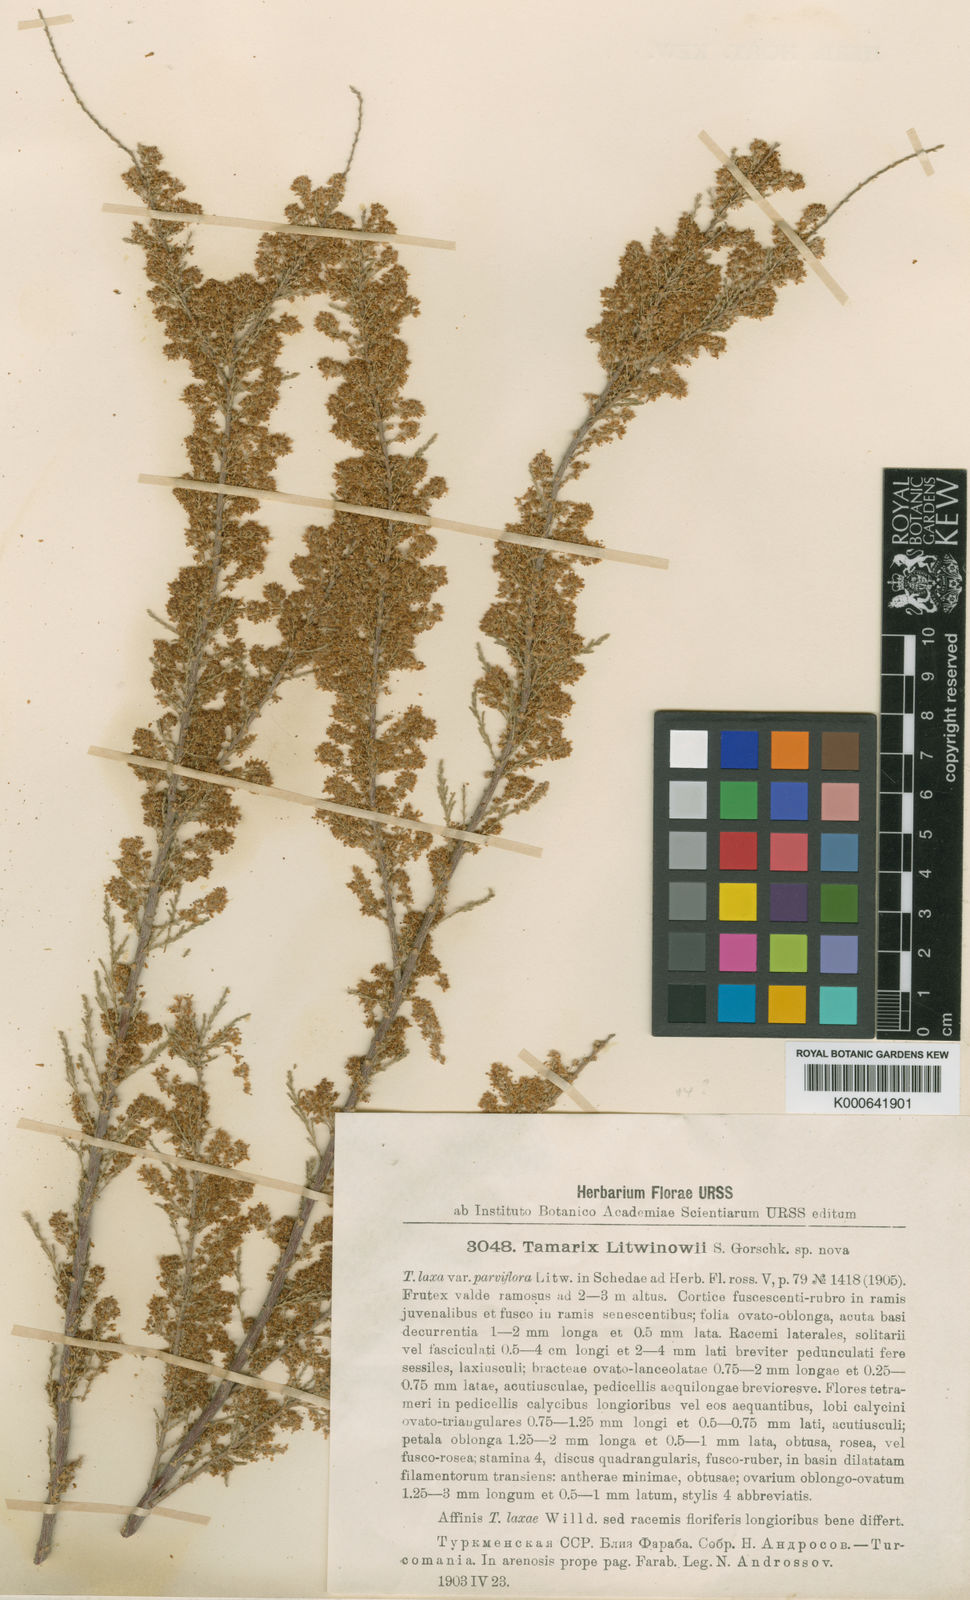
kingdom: Plantae
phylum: Tracheophyta
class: Magnoliopsida
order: Caryophyllales
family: Tamaricaceae
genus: Tamarix
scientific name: Tamarix litwinowii
